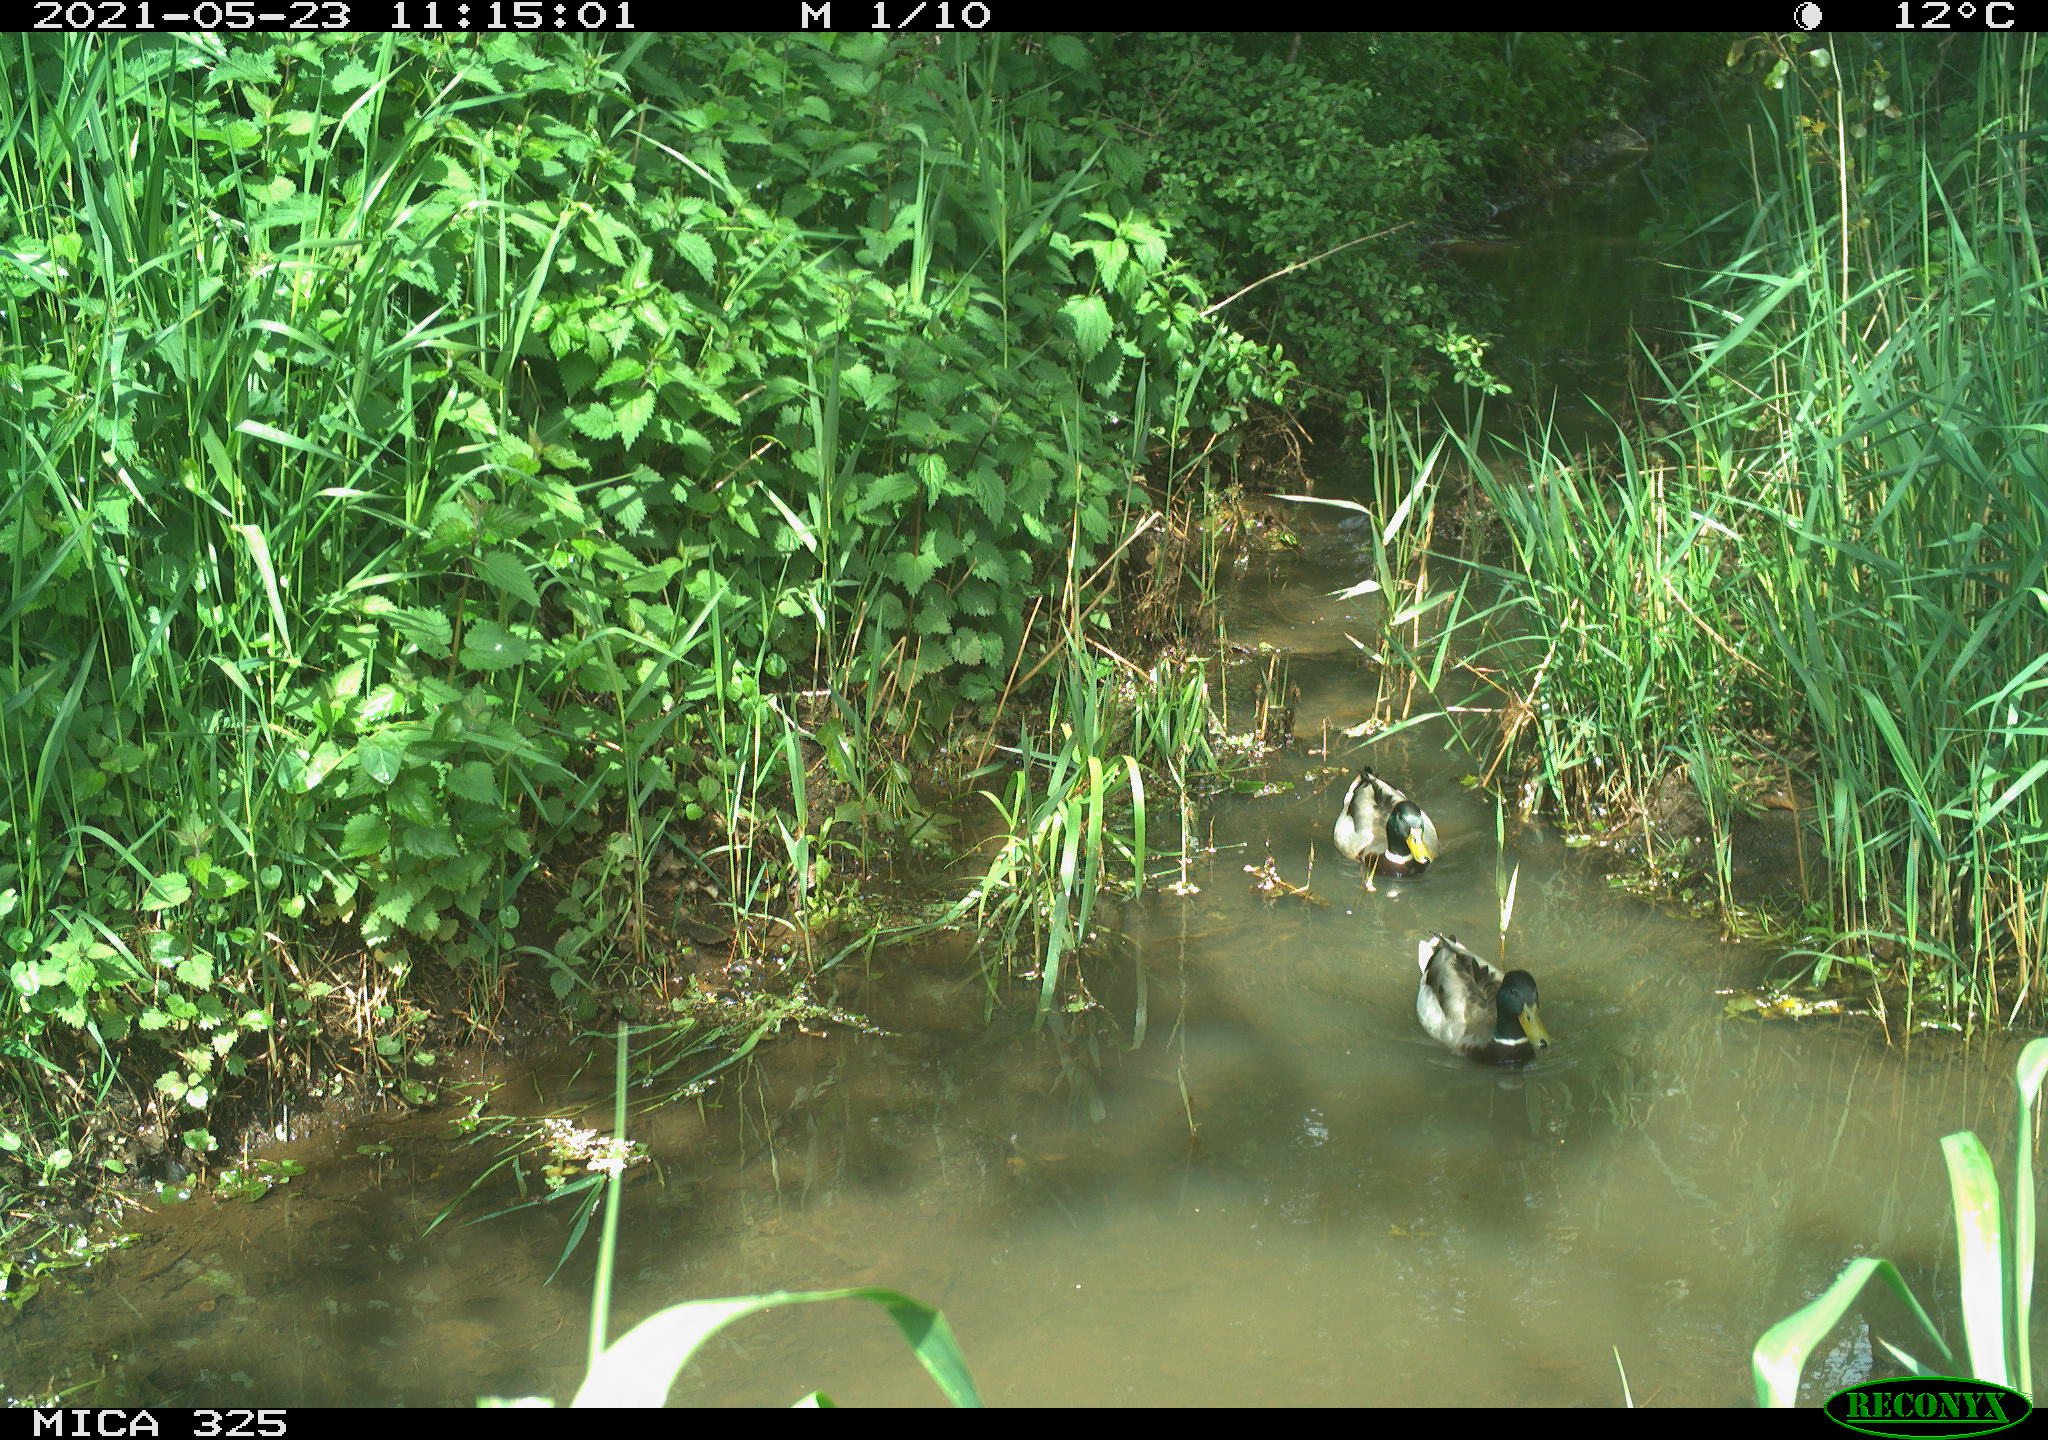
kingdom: Animalia
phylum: Chordata
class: Aves
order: Anseriformes
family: Anatidae
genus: Anas
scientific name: Anas platyrhynchos
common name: Mallard
